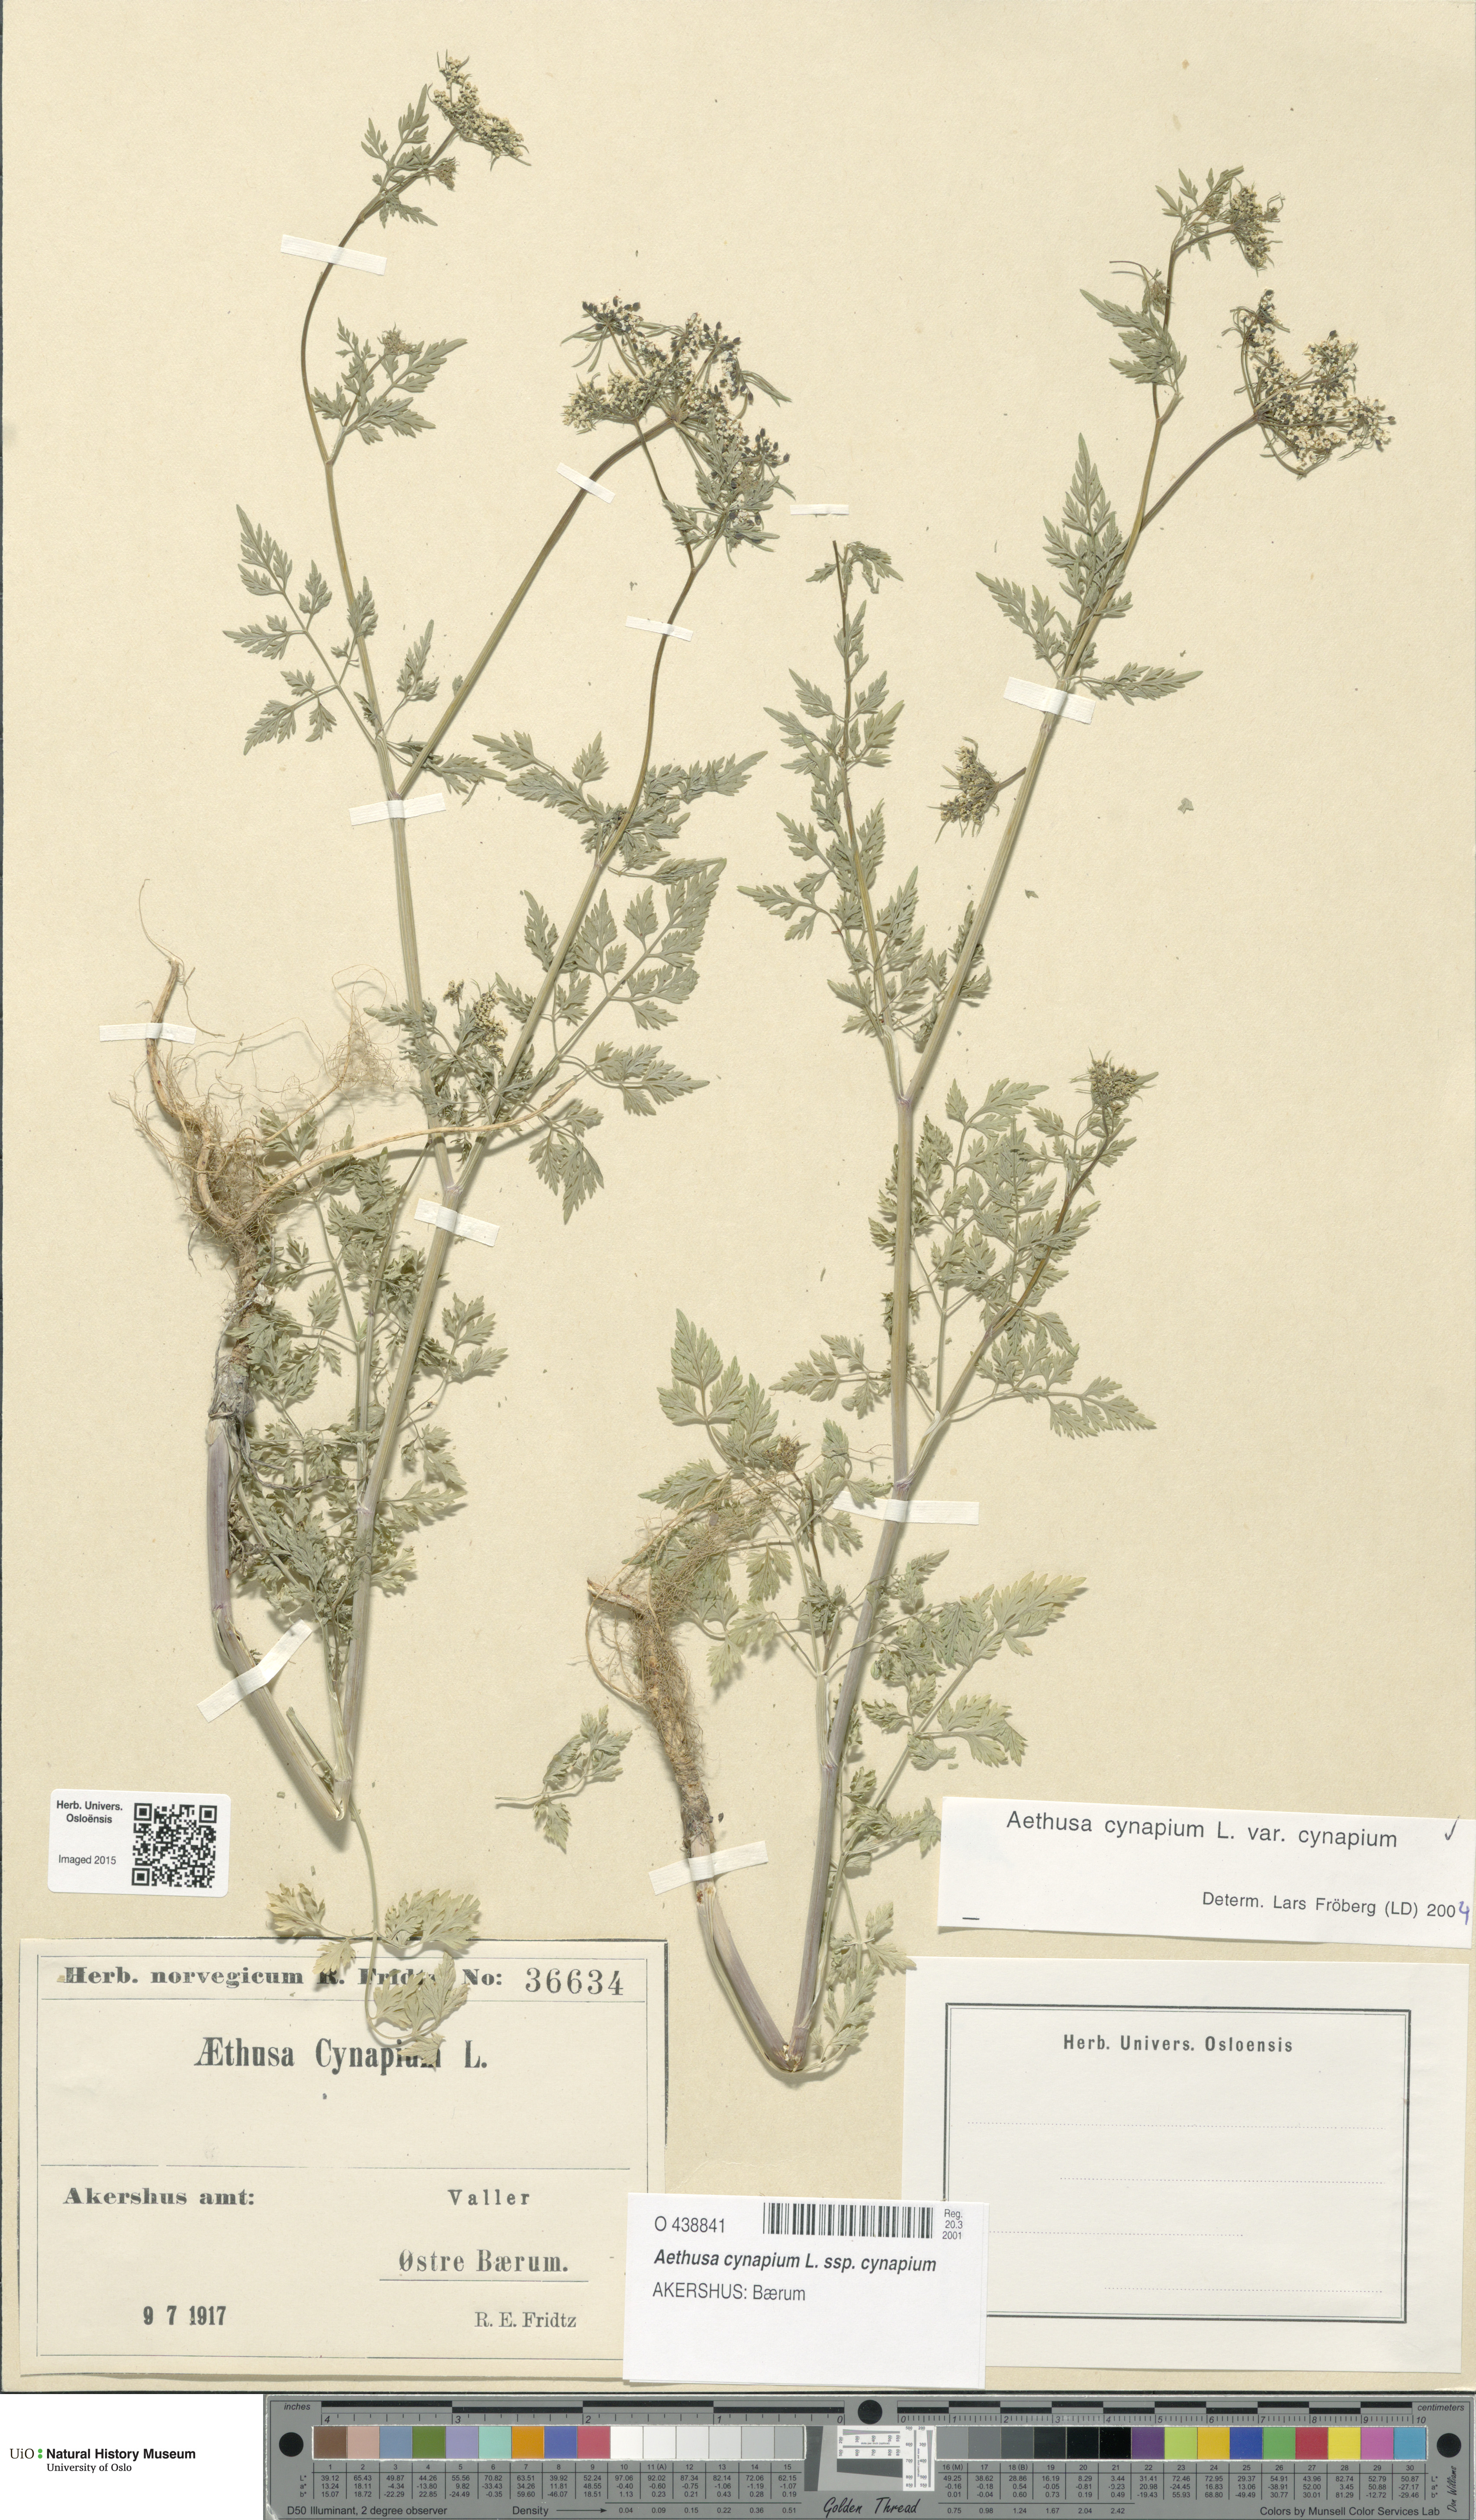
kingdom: Plantae
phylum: Tracheophyta
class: Magnoliopsida
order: Apiales
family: Apiaceae
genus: Aethusa
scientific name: Aethusa cynapium
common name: Fool's parsley
